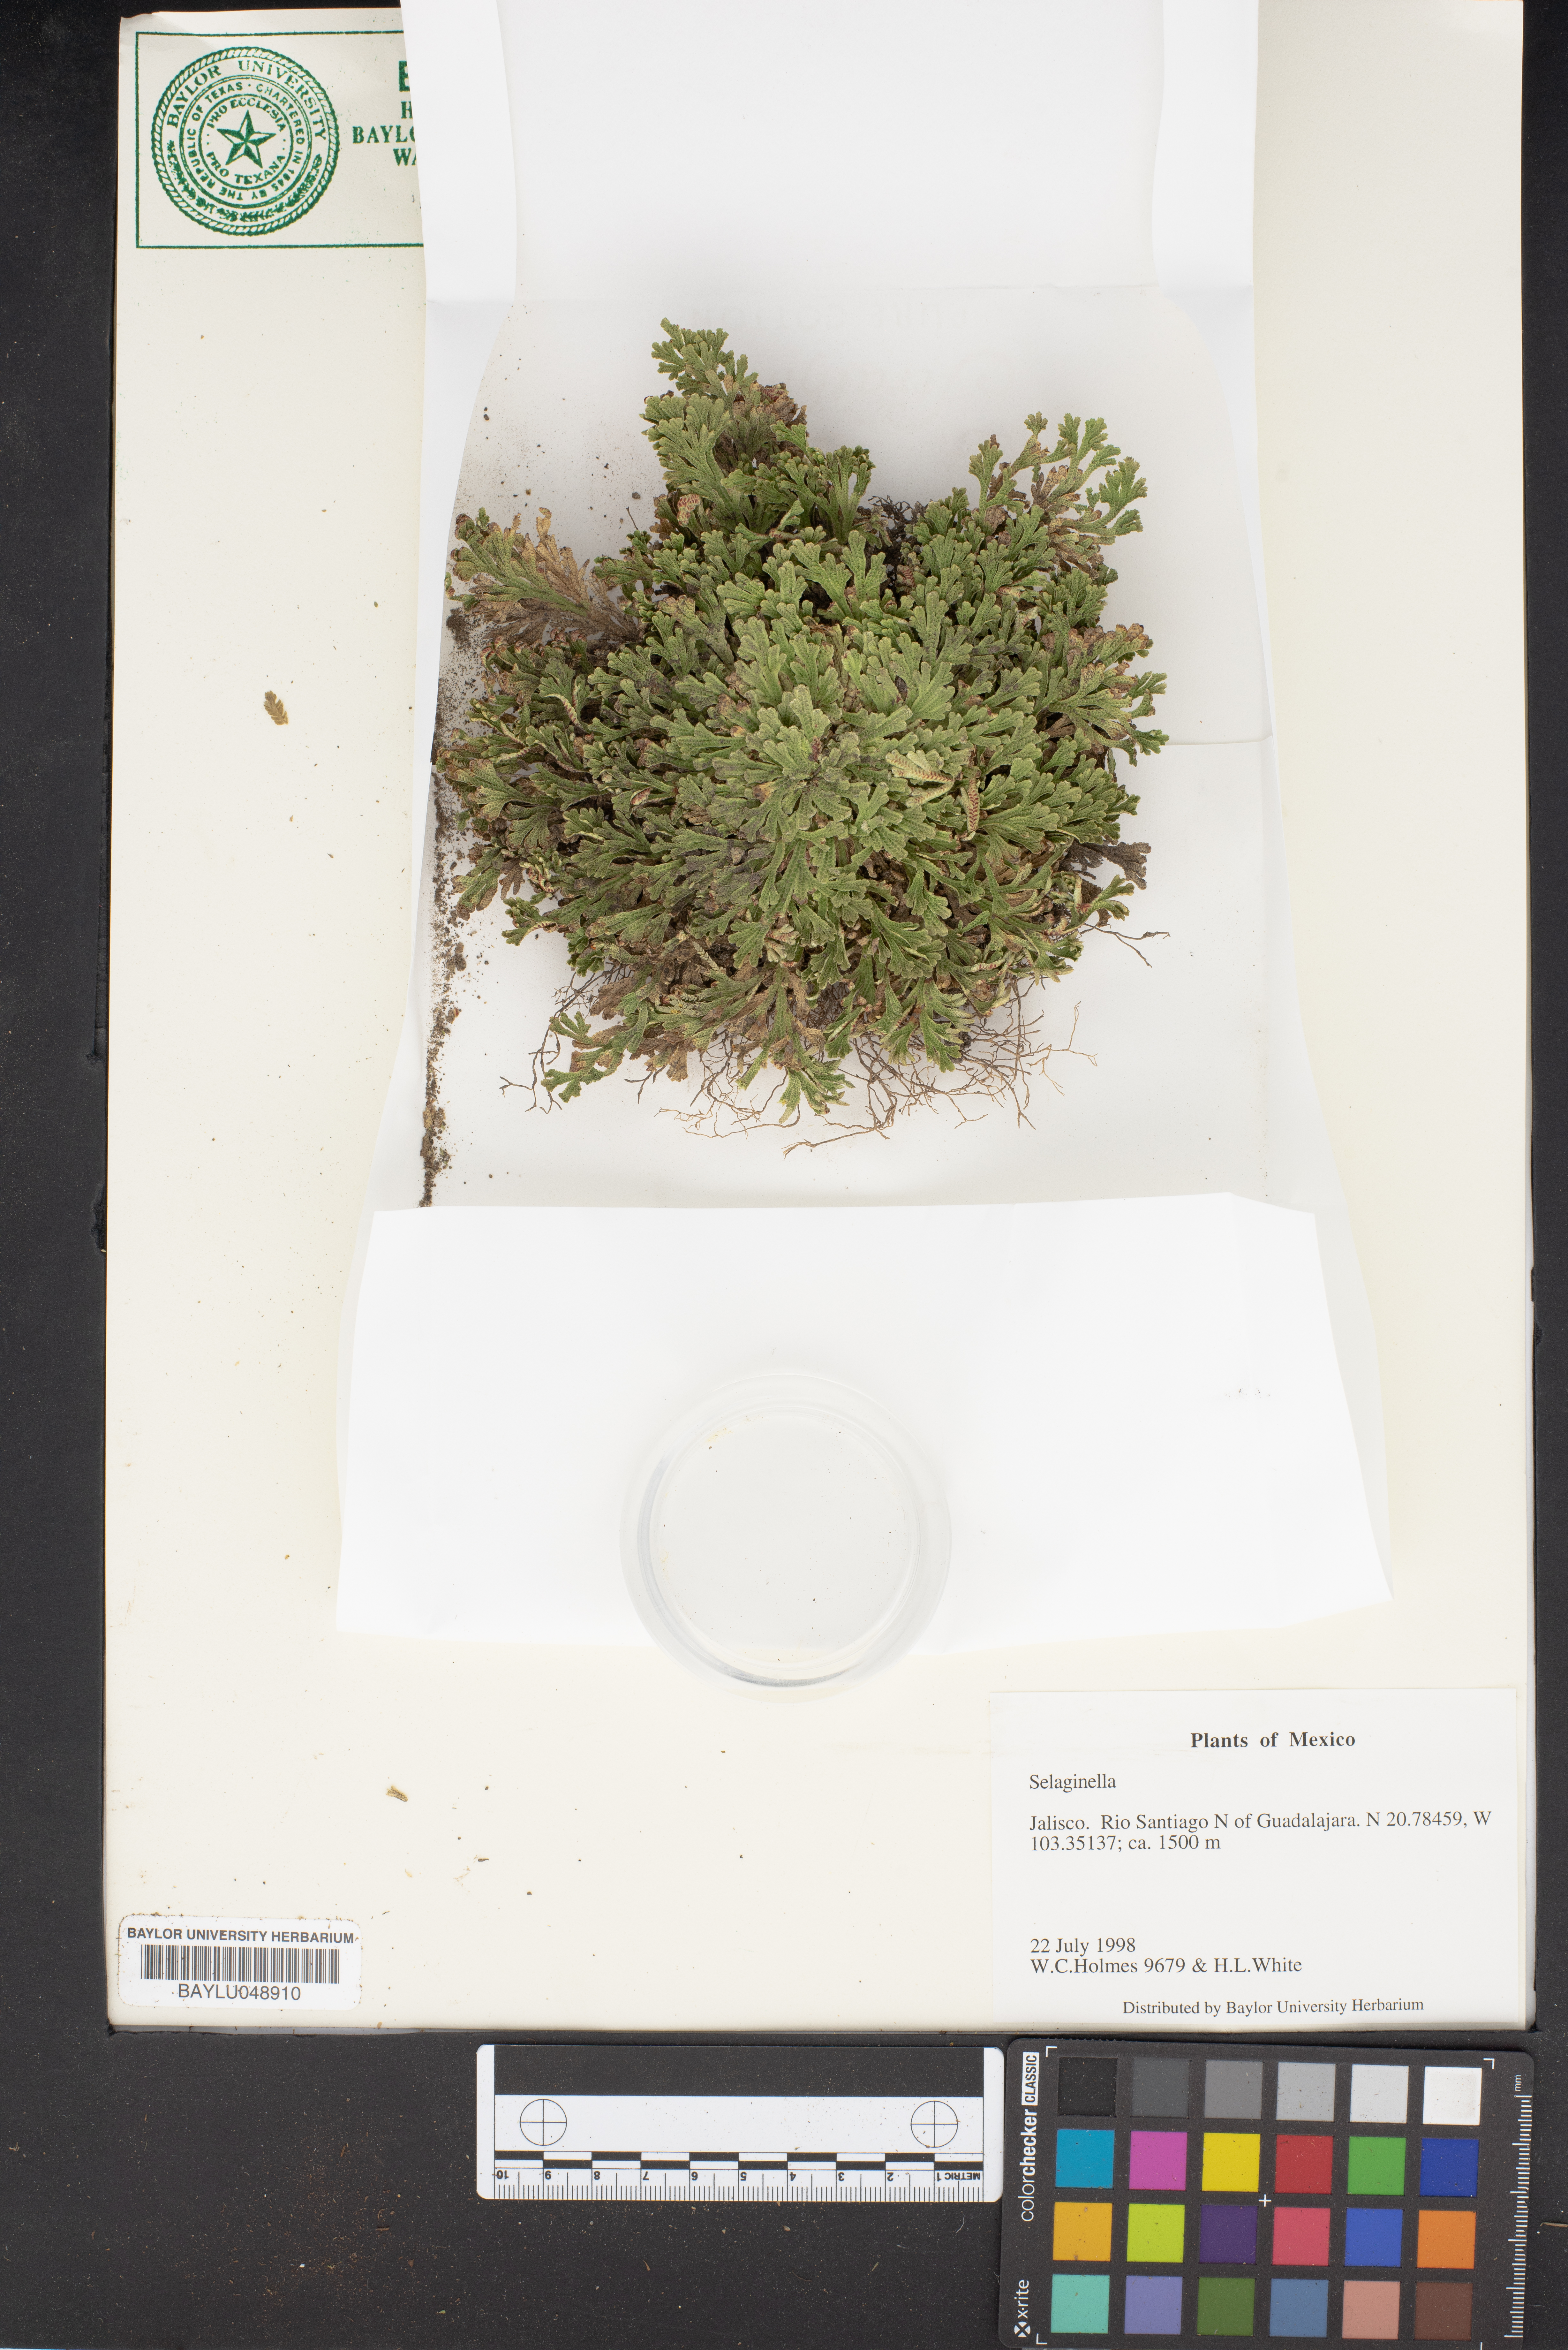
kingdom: Plantae
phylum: Tracheophyta
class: Lycopodiopsida
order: Selaginellales
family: Selaginellaceae
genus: Selaginella
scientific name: Selaginella
